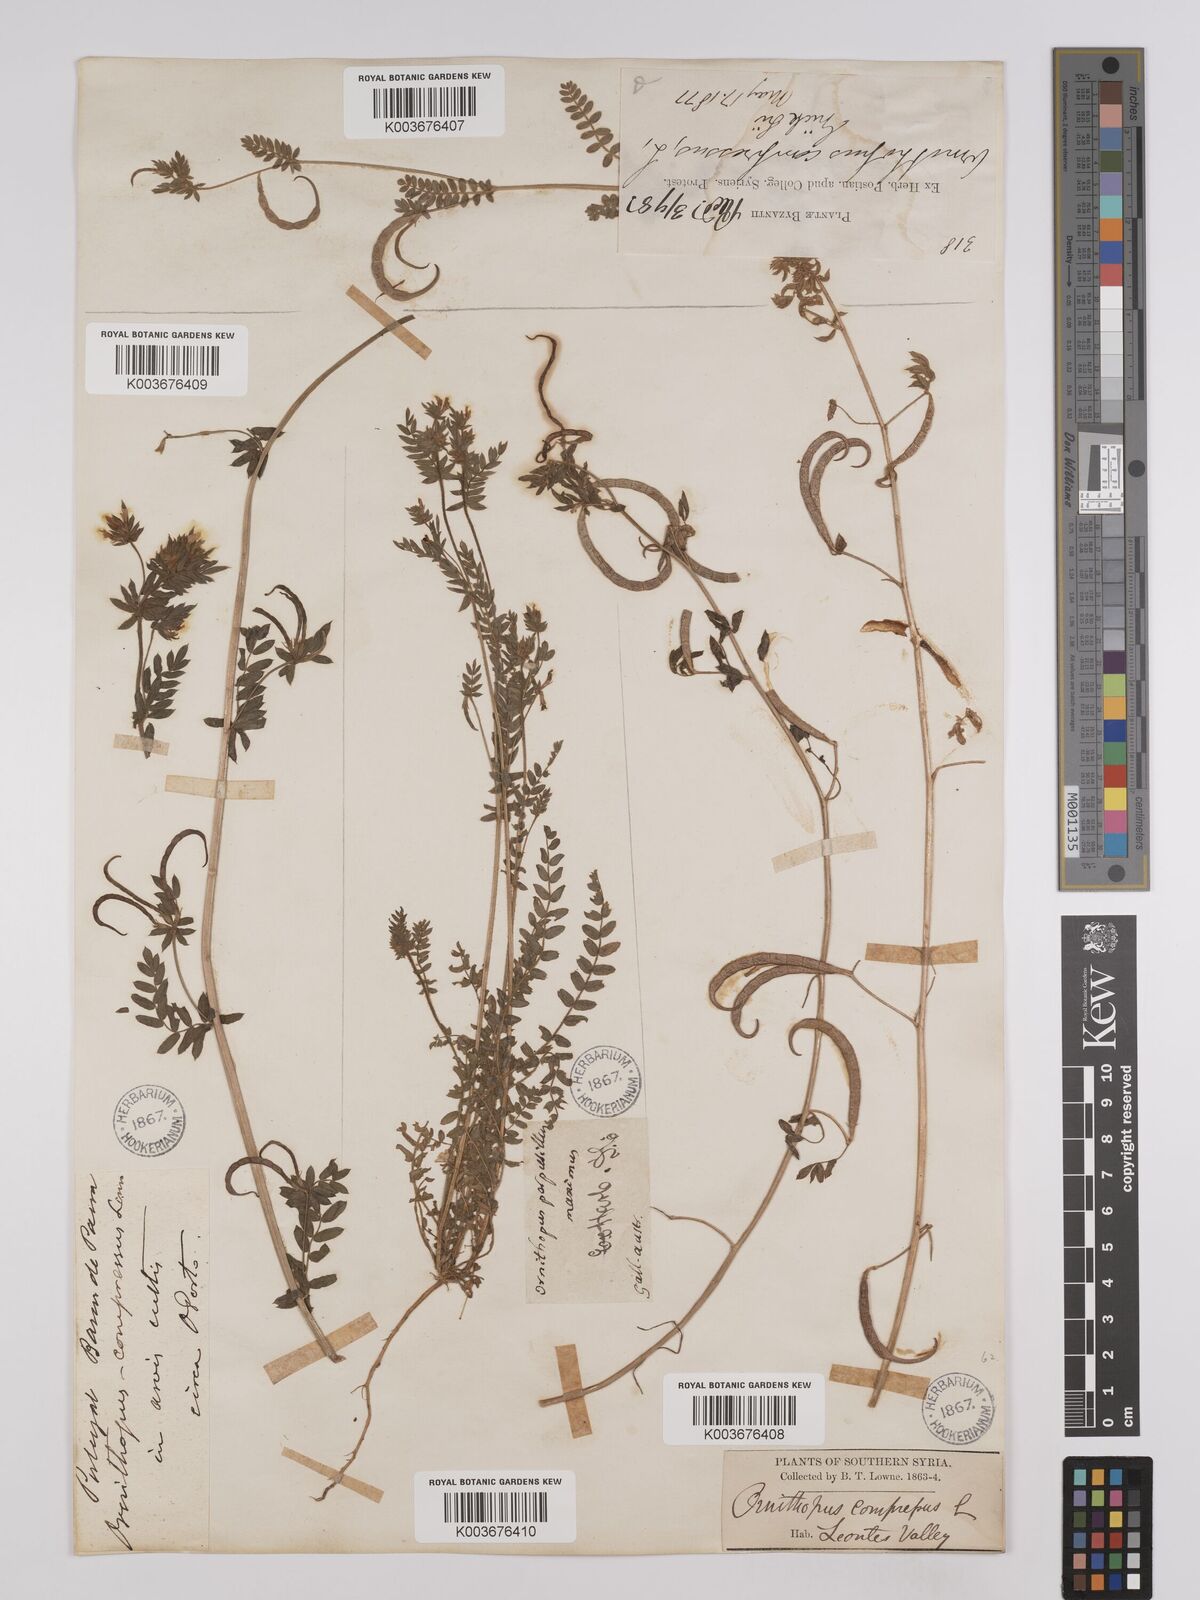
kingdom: Plantae
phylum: Tracheophyta
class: Magnoliopsida
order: Fabales
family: Fabaceae
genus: Ornithopus
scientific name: Ornithopus compressus
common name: Yellow serradella
